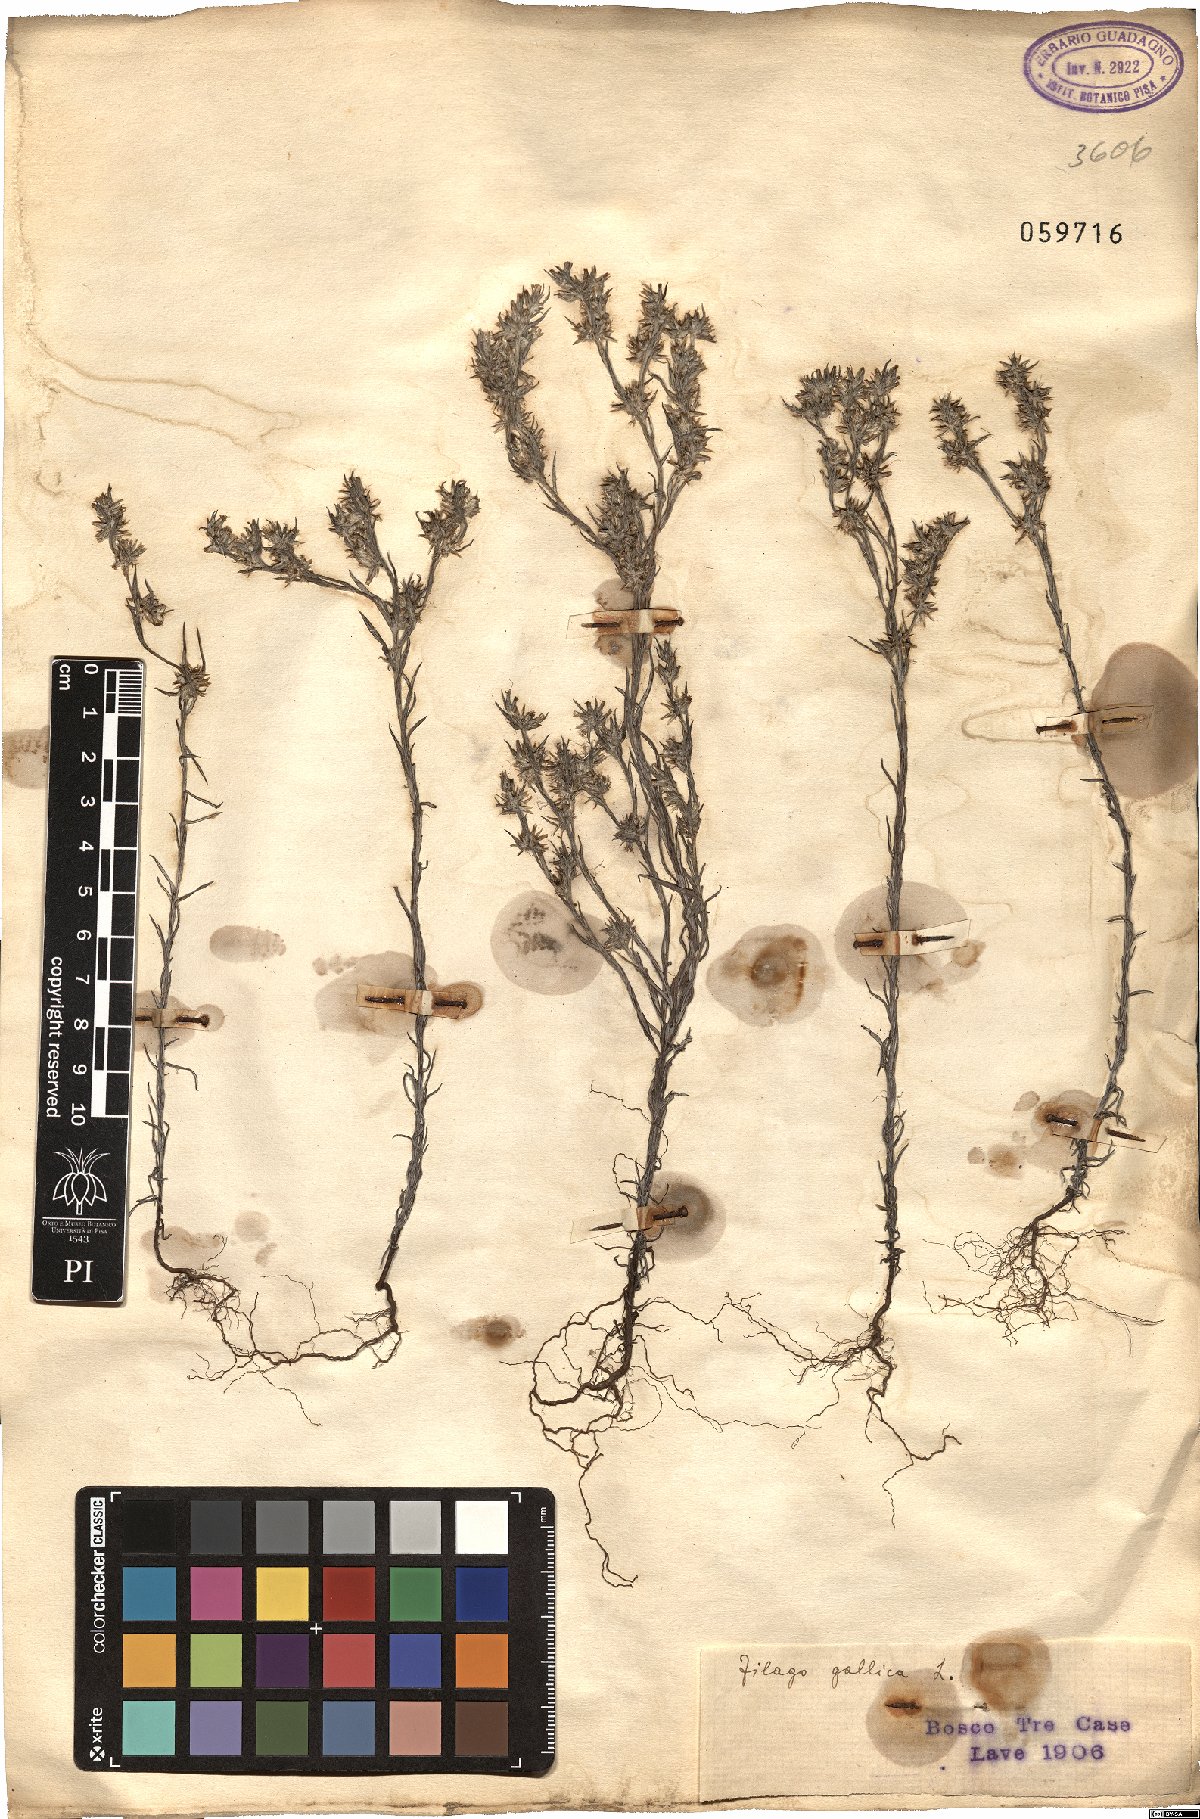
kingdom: Plantae
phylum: Tracheophyta
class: Magnoliopsida
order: Asterales
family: Asteraceae
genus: Logfia
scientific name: Logfia gallica
